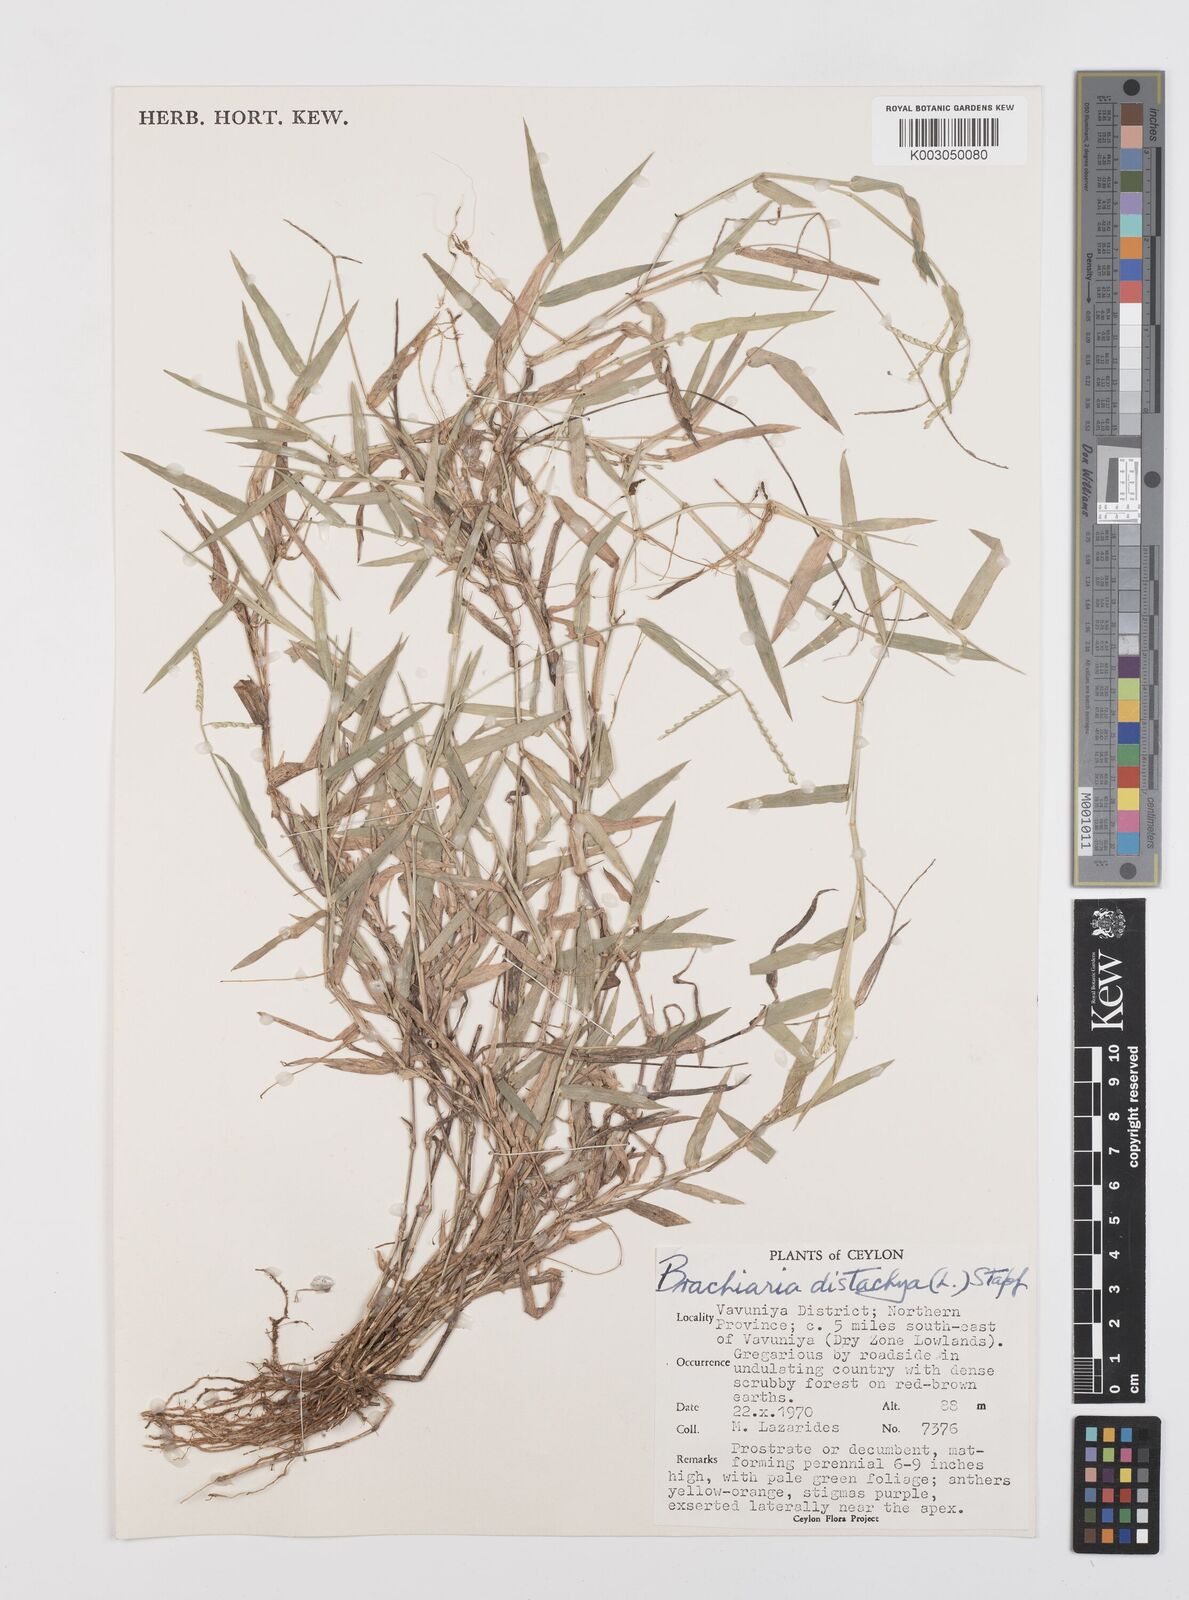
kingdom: Plantae
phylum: Tracheophyta
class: Liliopsida
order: Poales
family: Poaceae
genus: Urochloa
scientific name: Urochloa distachyos
